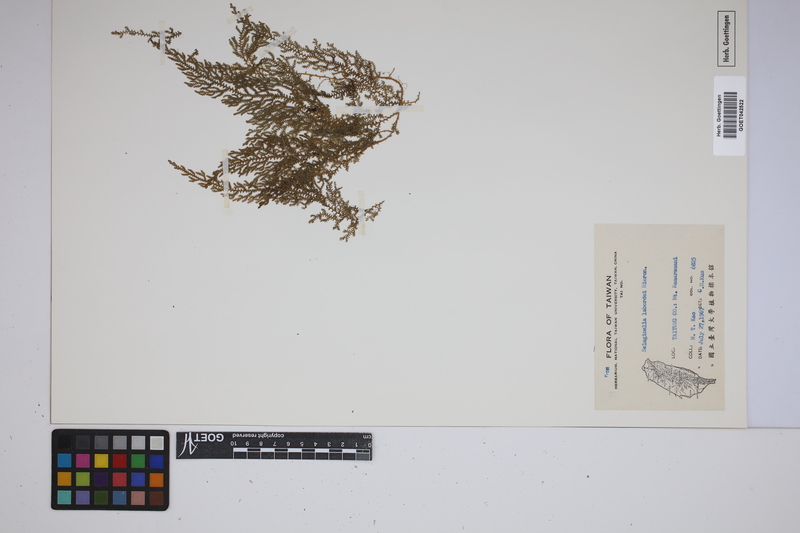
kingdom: Plantae
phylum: Tracheophyta
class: Lycopodiopsida
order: Selaginellales
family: Selaginellaceae
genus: Selaginella
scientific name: Selaginella labordei
